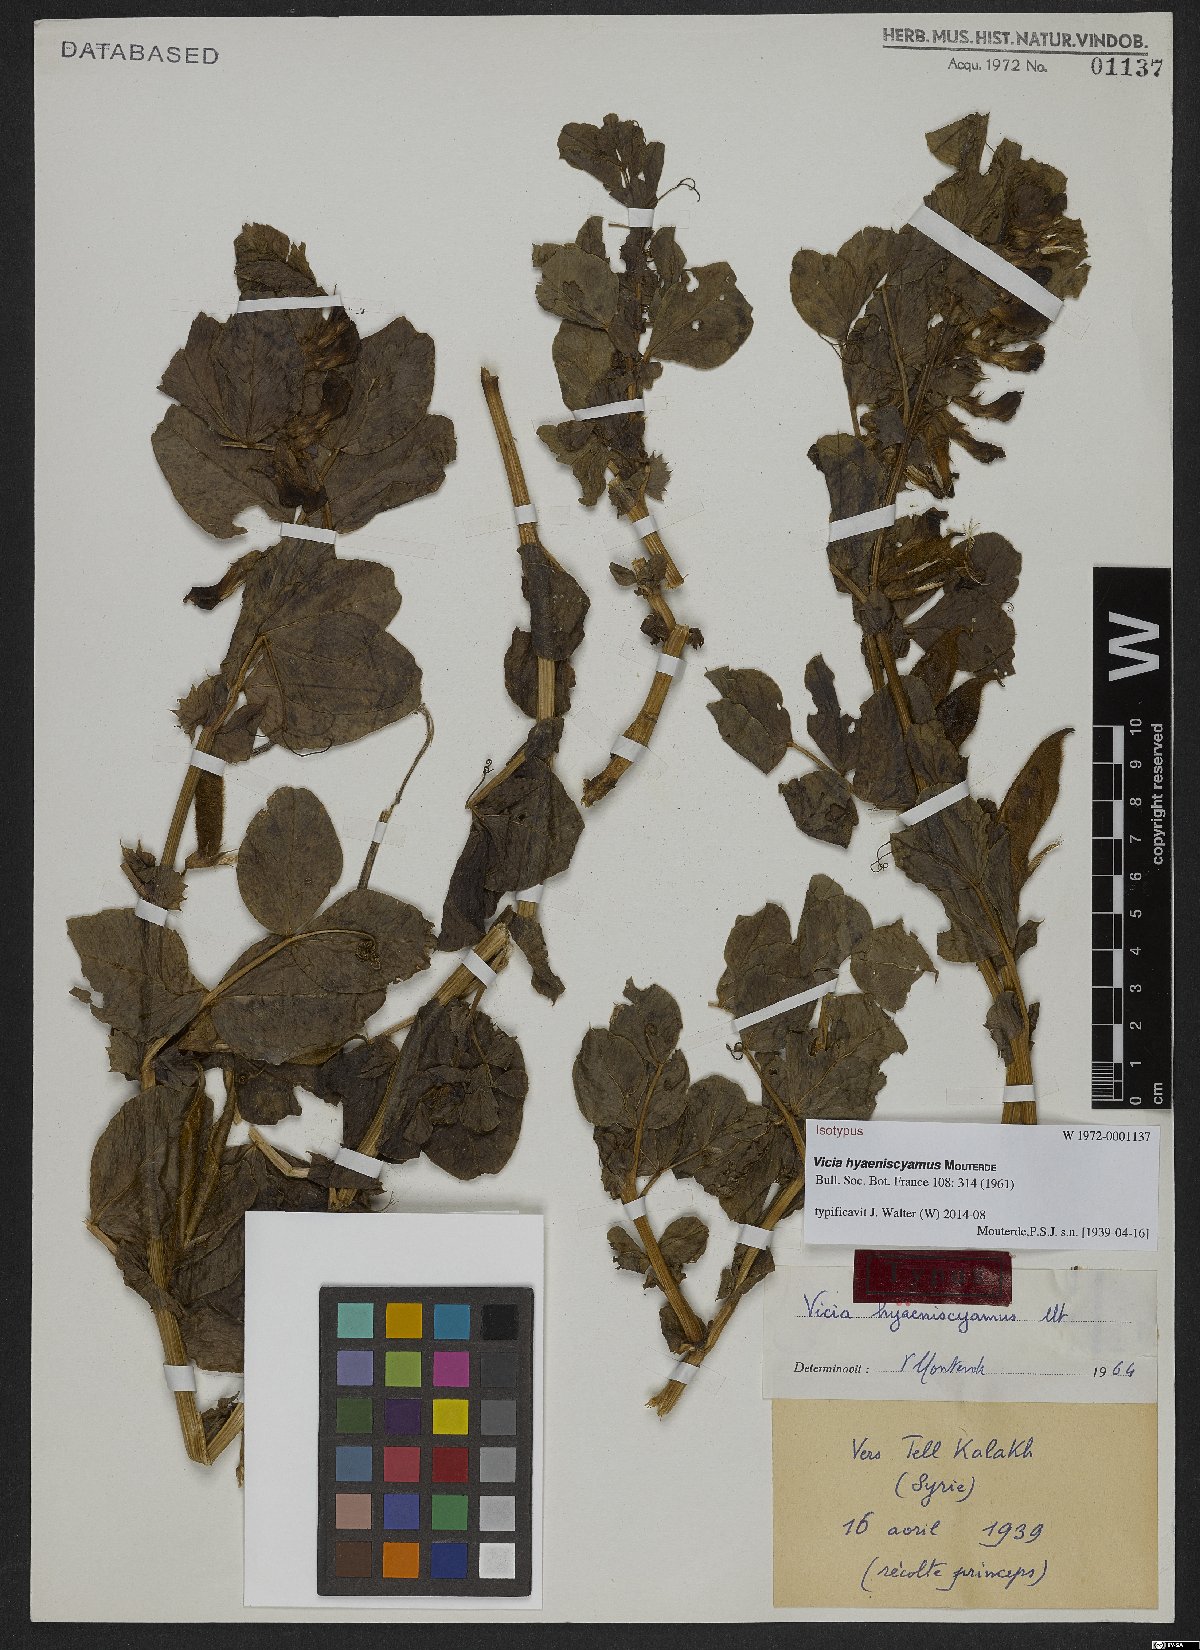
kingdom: Plantae
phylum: Tracheophyta
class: Magnoliopsida
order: Fabales
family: Fabaceae
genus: Vicia
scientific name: Vicia hyaeniscyamus
